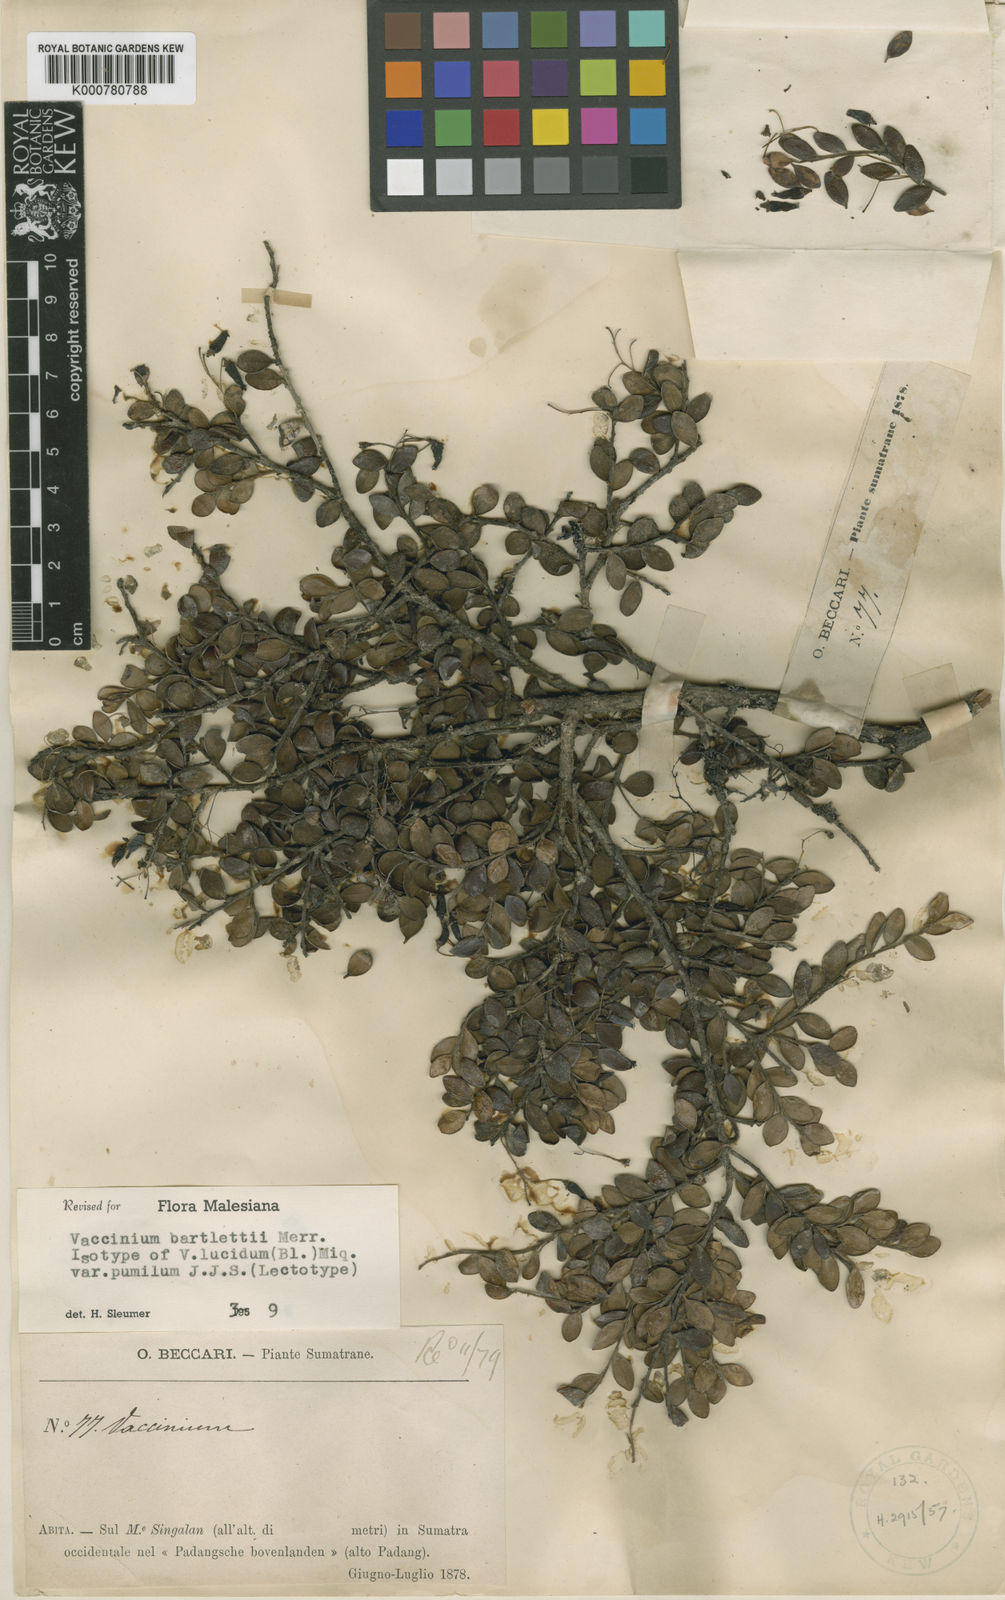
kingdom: Plantae
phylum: Tracheophyta
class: Magnoliopsida
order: Ericales
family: Ericaceae
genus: Vaccinium
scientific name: Vaccinium bartlettii
